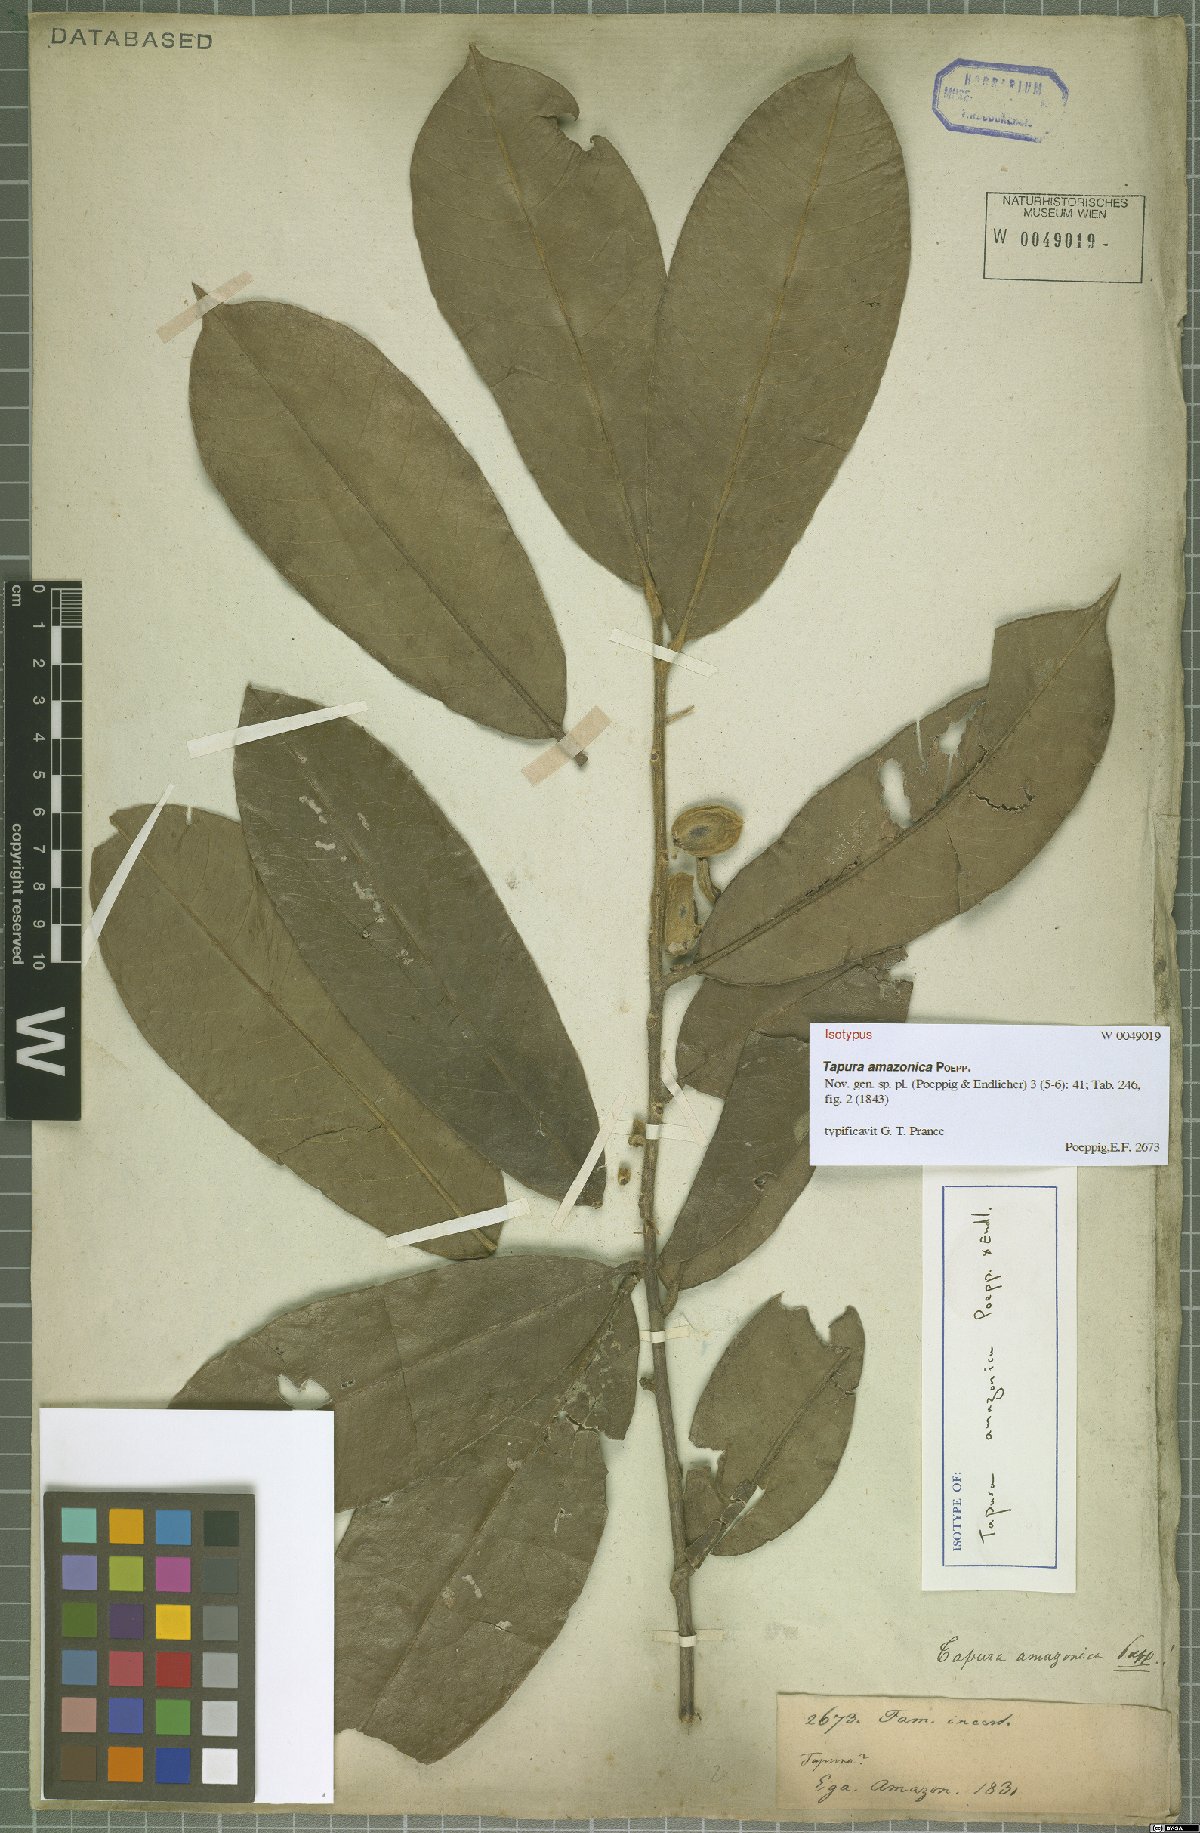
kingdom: Plantae
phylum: Tracheophyta
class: Magnoliopsida
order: Malpighiales
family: Dichapetalaceae
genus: Tapura
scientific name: Tapura amazonica
